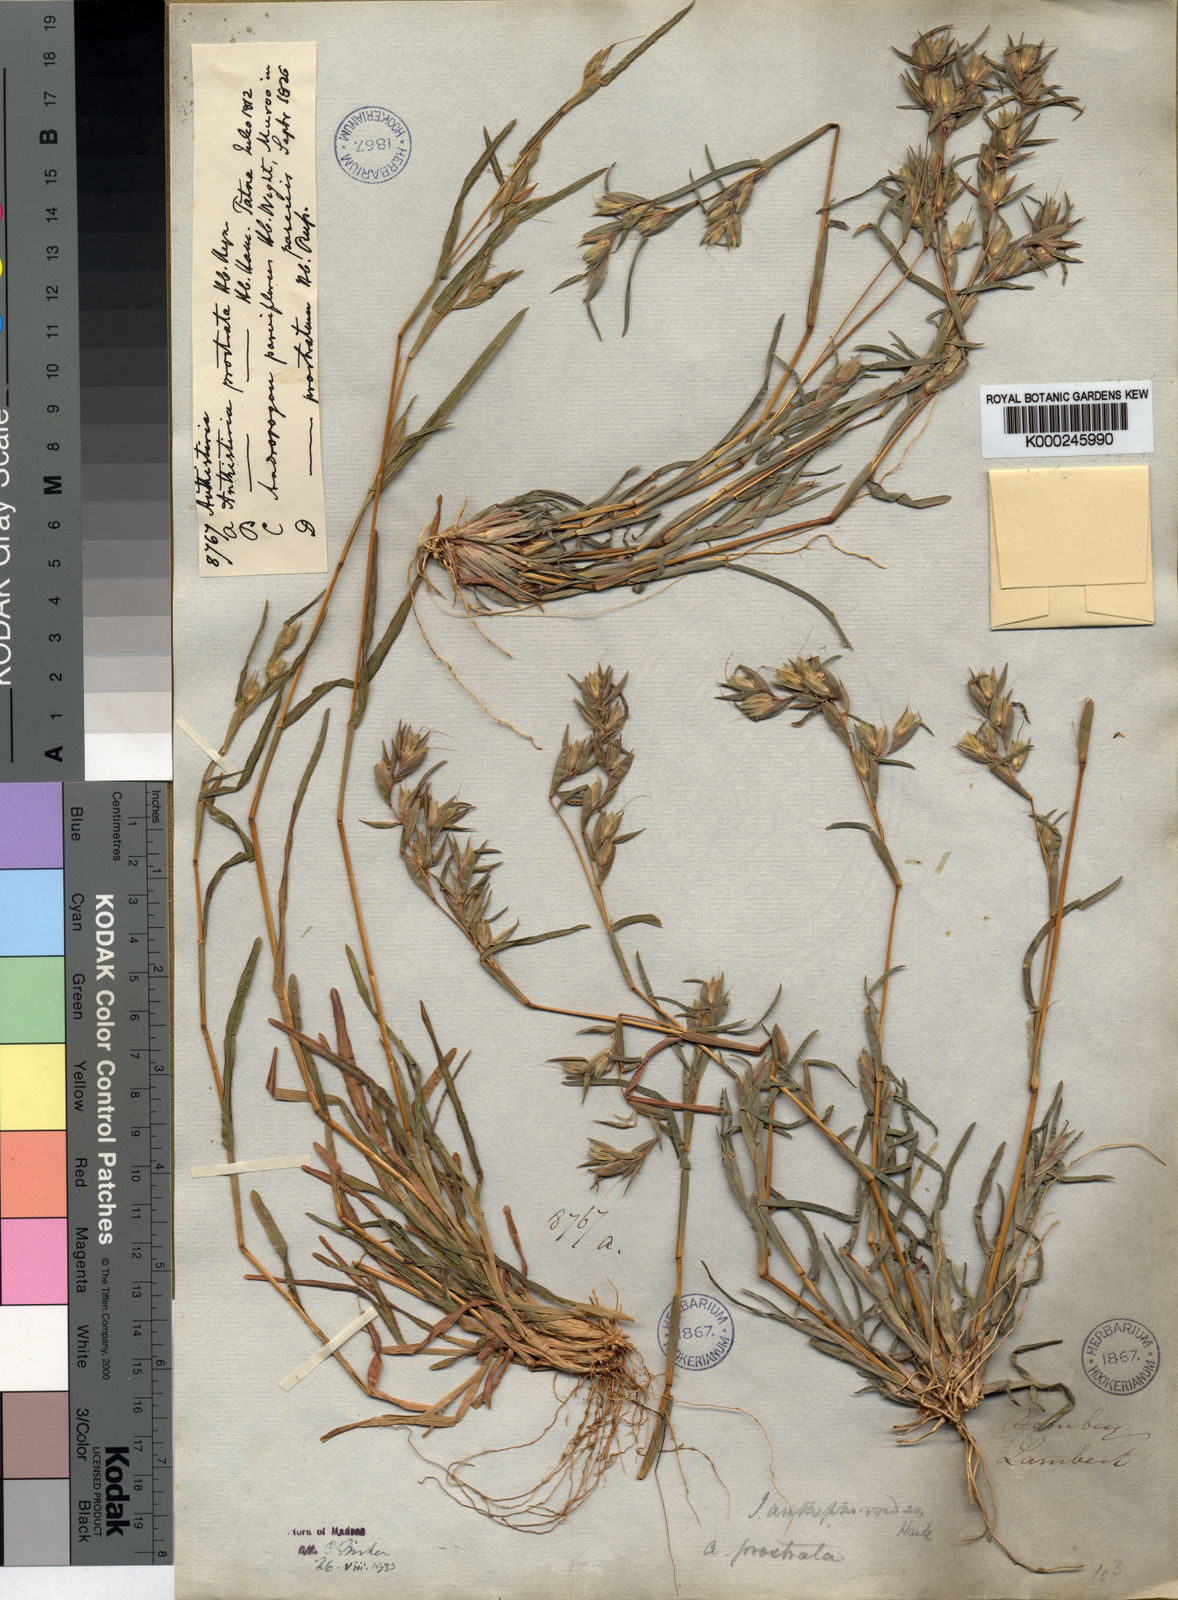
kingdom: Plantae
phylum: Tracheophyta
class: Liliopsida
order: Poales
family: Poaceae
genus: Iseilema
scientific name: Iseilema anthephoroides
